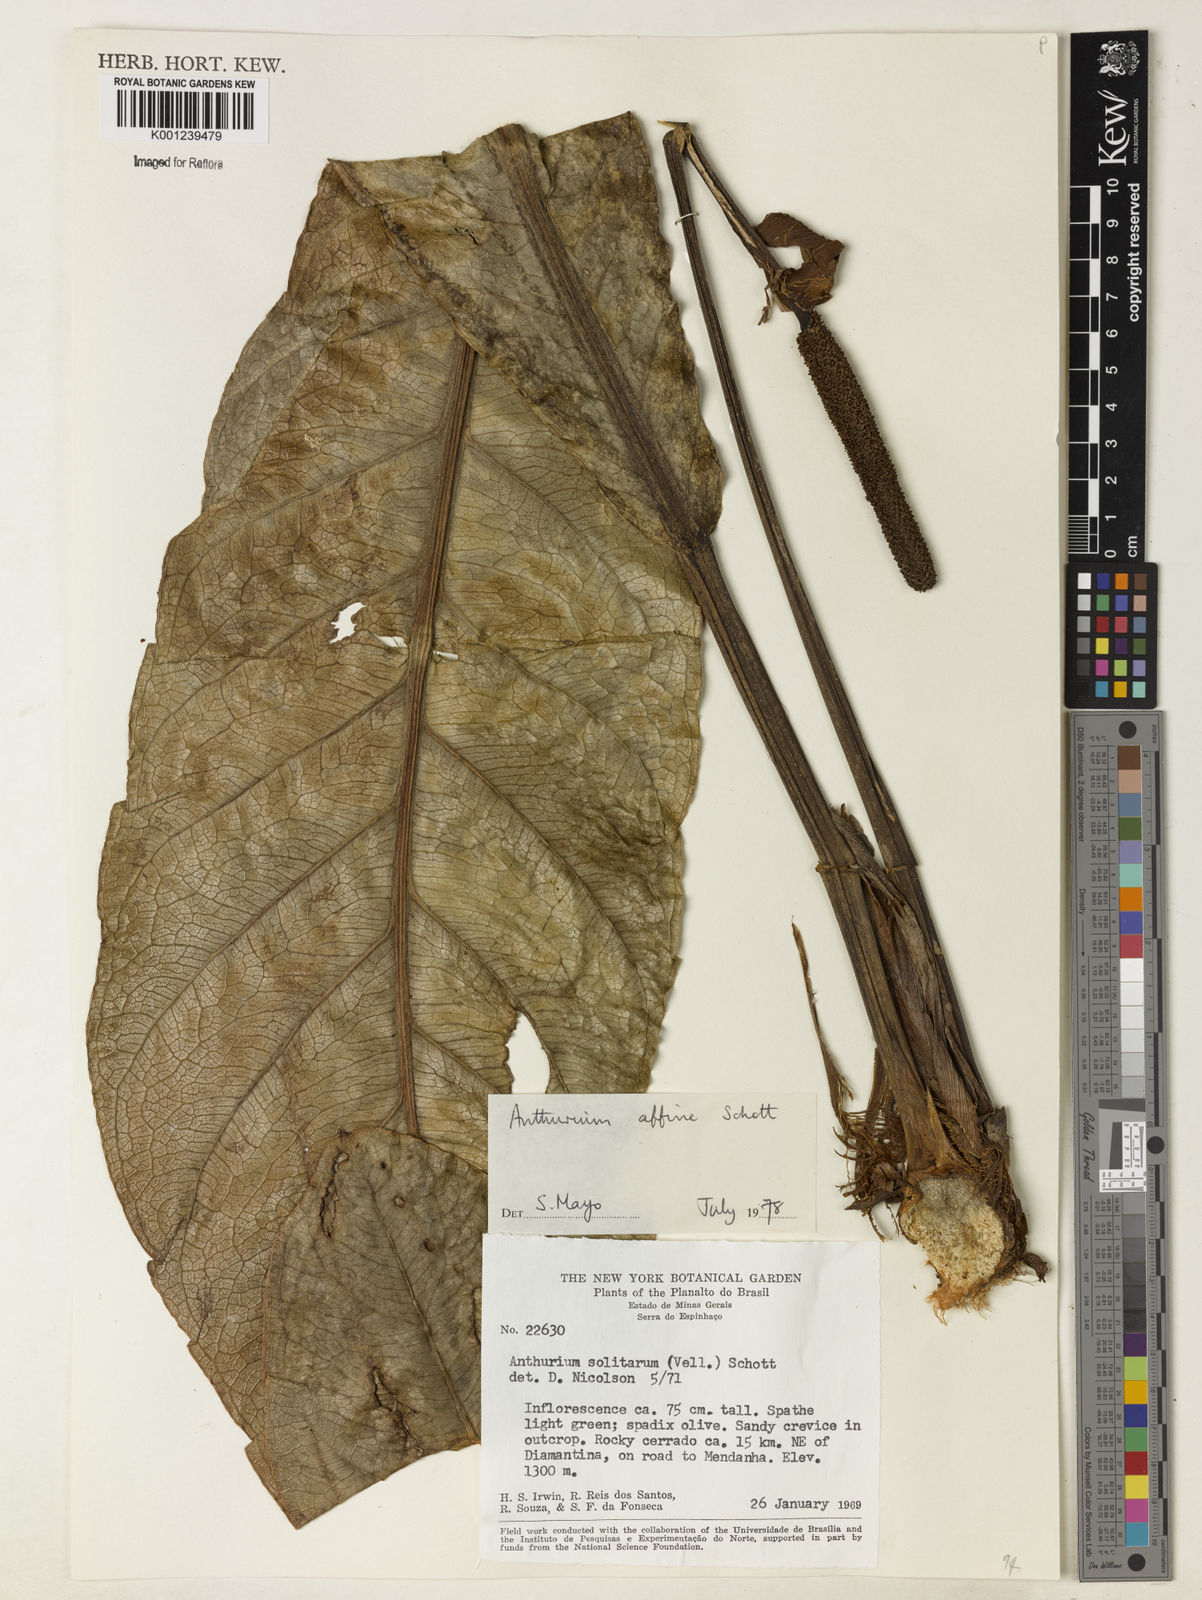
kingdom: Plantae
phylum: Tracheophyta
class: Liliopsida
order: Alismatales
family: Araceae
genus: Anthurium
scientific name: Anthurium affine
